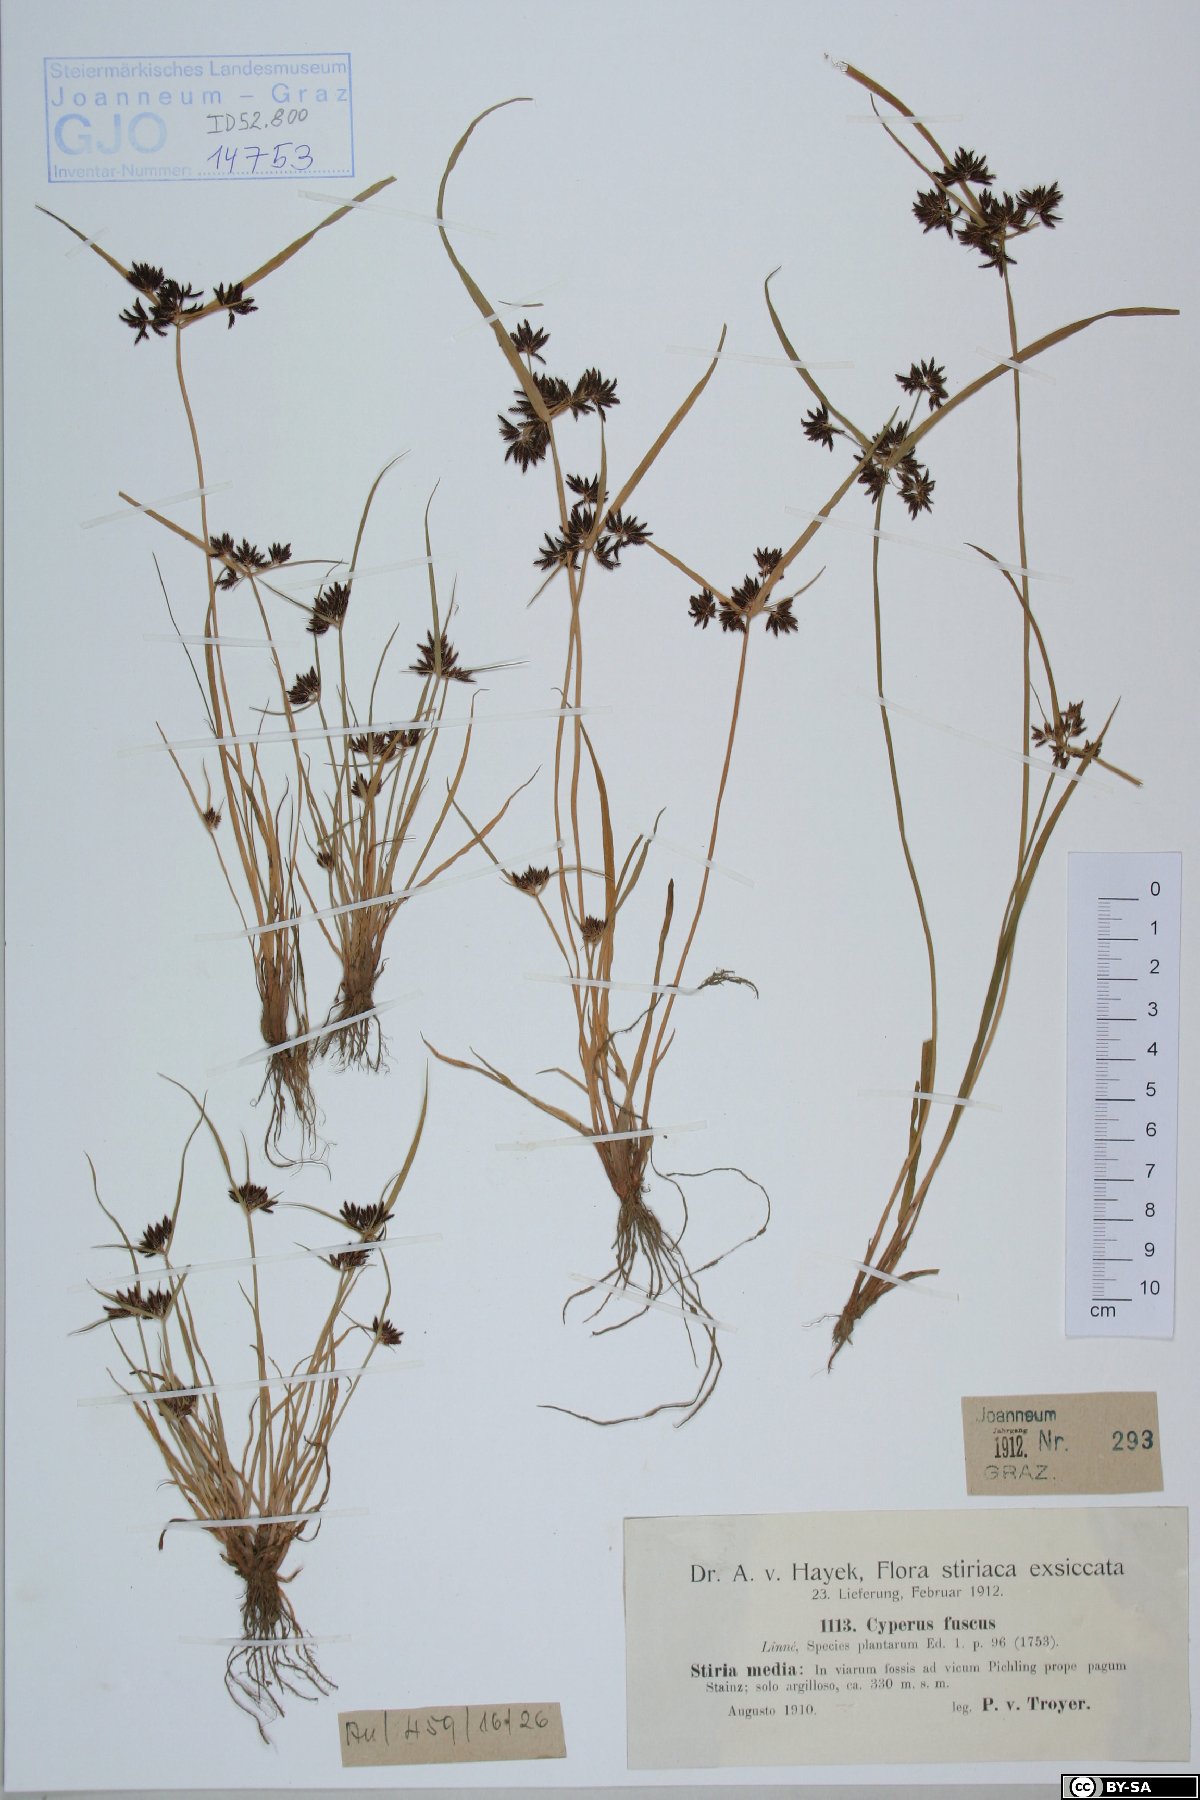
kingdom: Plantae
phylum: Tracheophyta
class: Liliopsida
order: Poales
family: Cyperaceae
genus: Cyperus
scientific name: Cyperus fuscus
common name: Brown galingale
